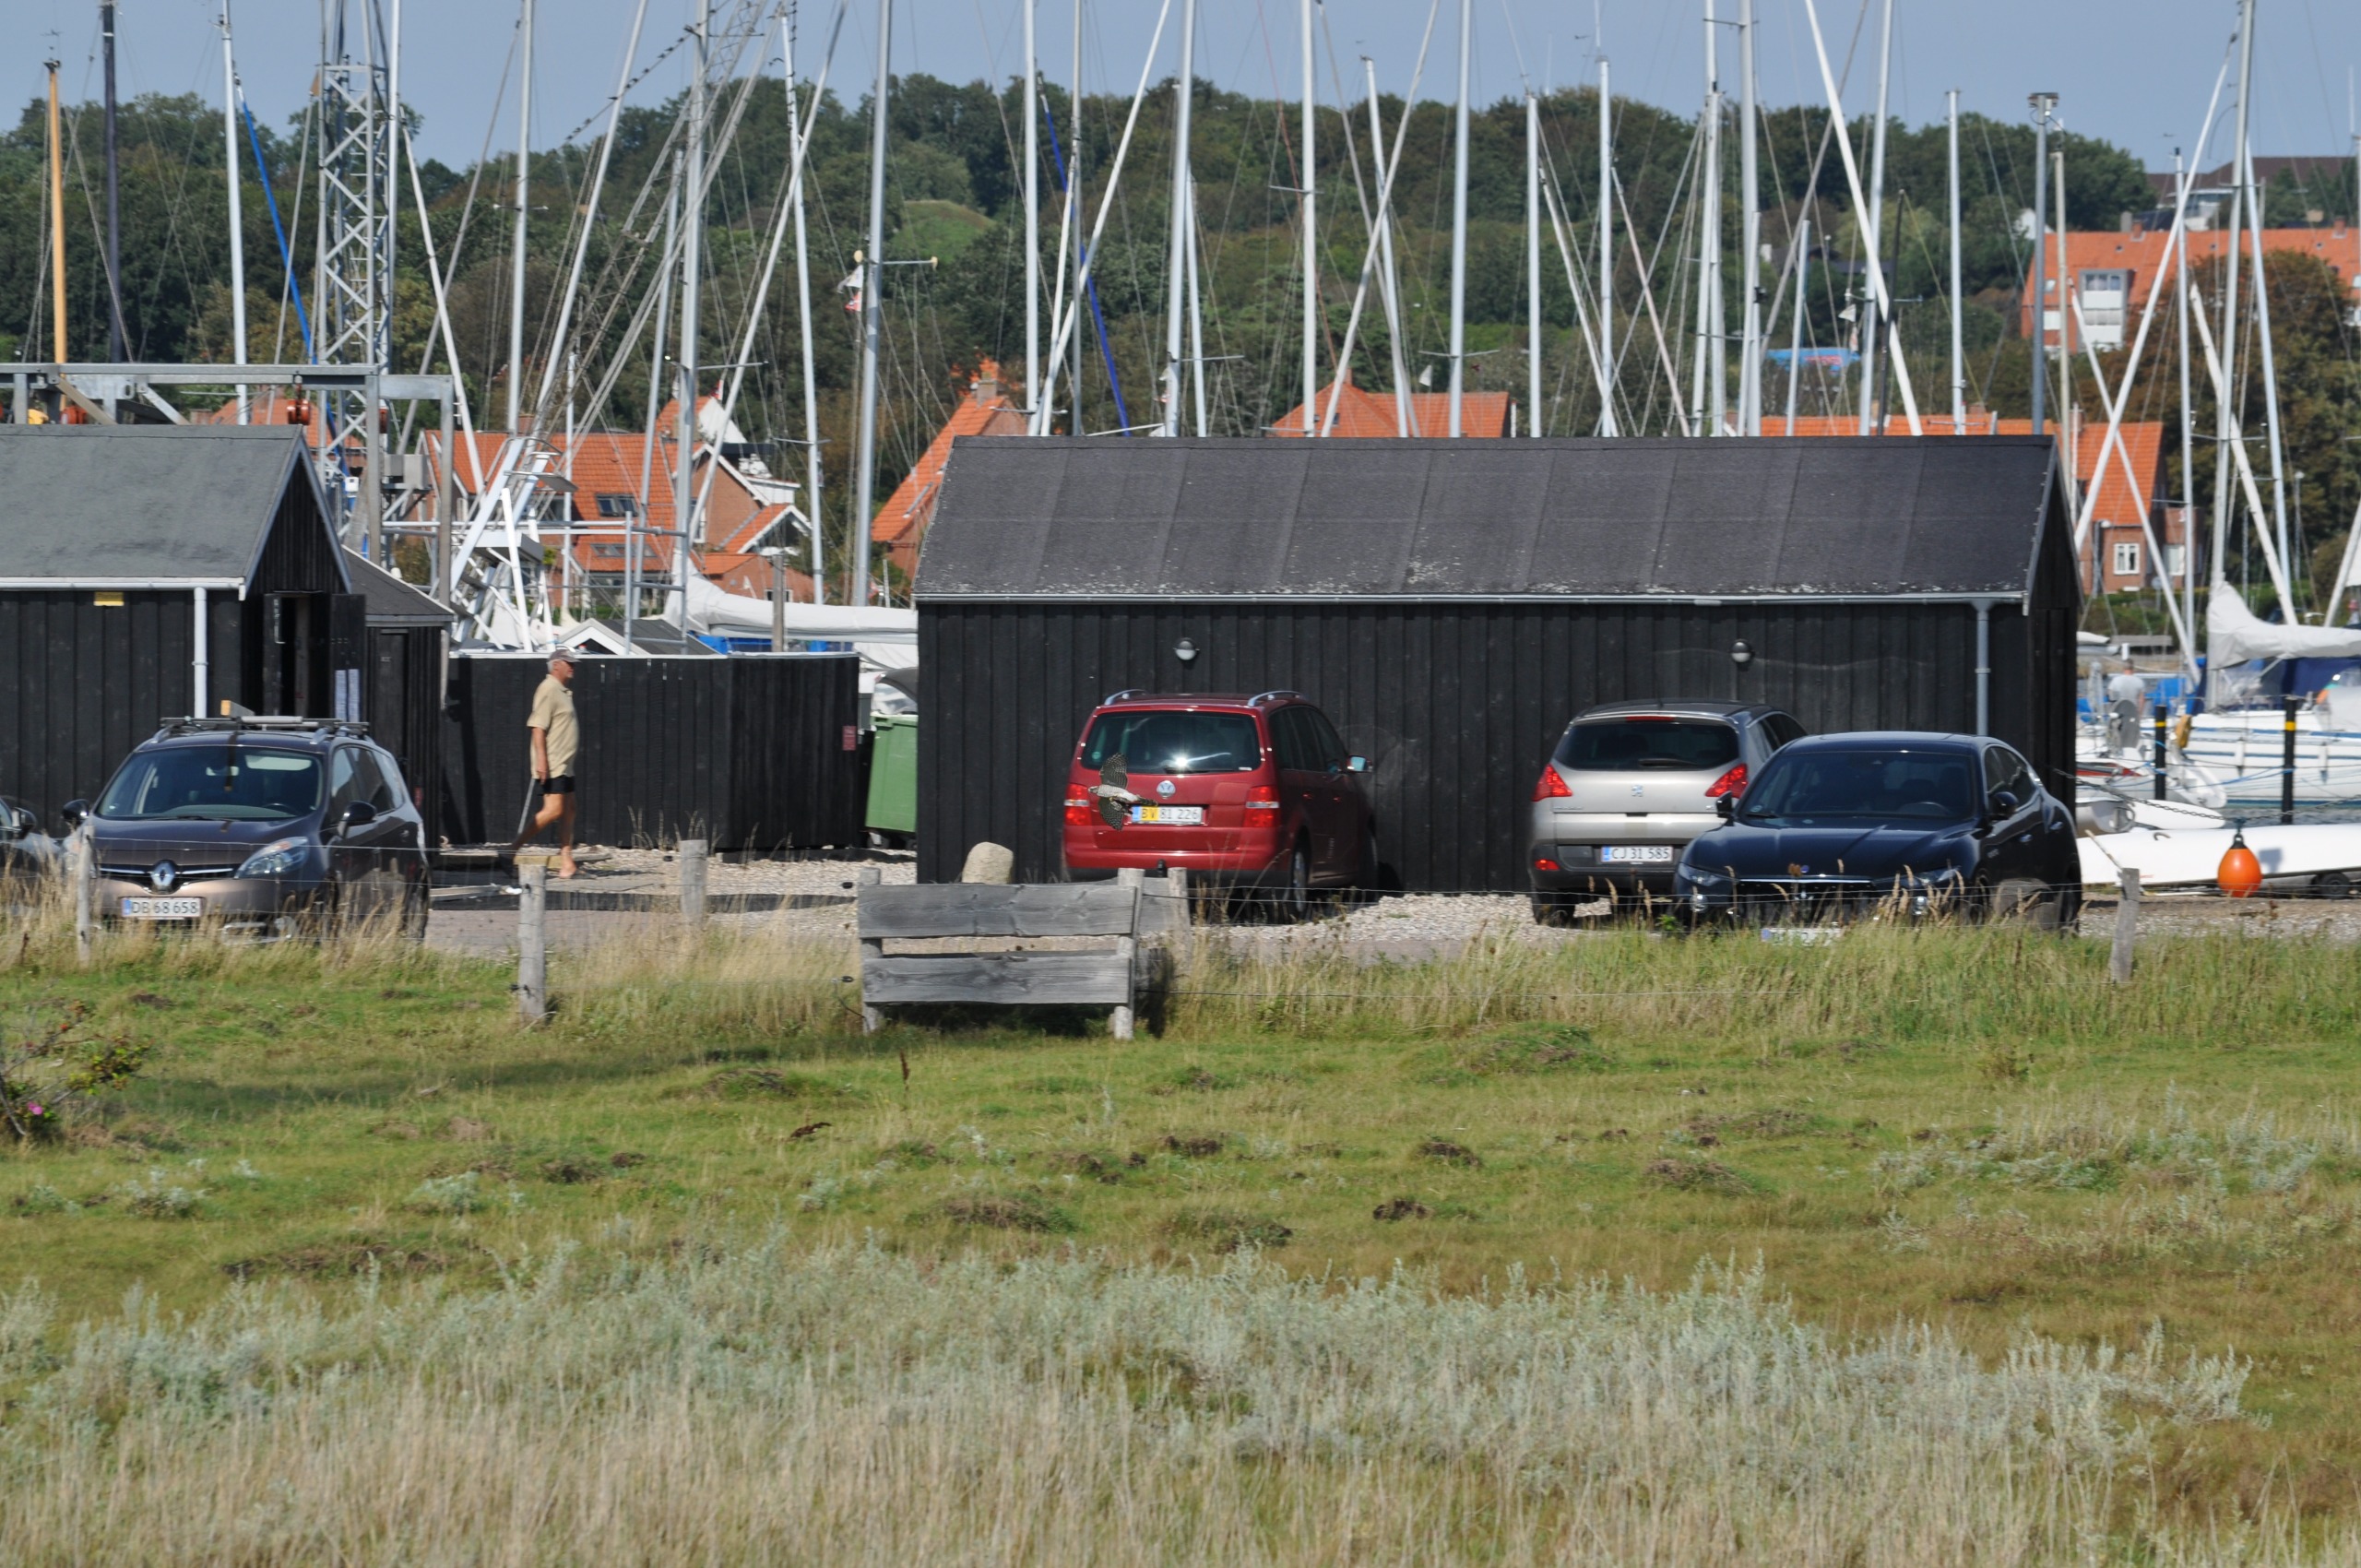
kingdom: Animalia
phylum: Chordata
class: Aves
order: Accipitriformes
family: Accipitridae
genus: Accipiter
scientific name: Accipiter nisus
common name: Spurvehøg
